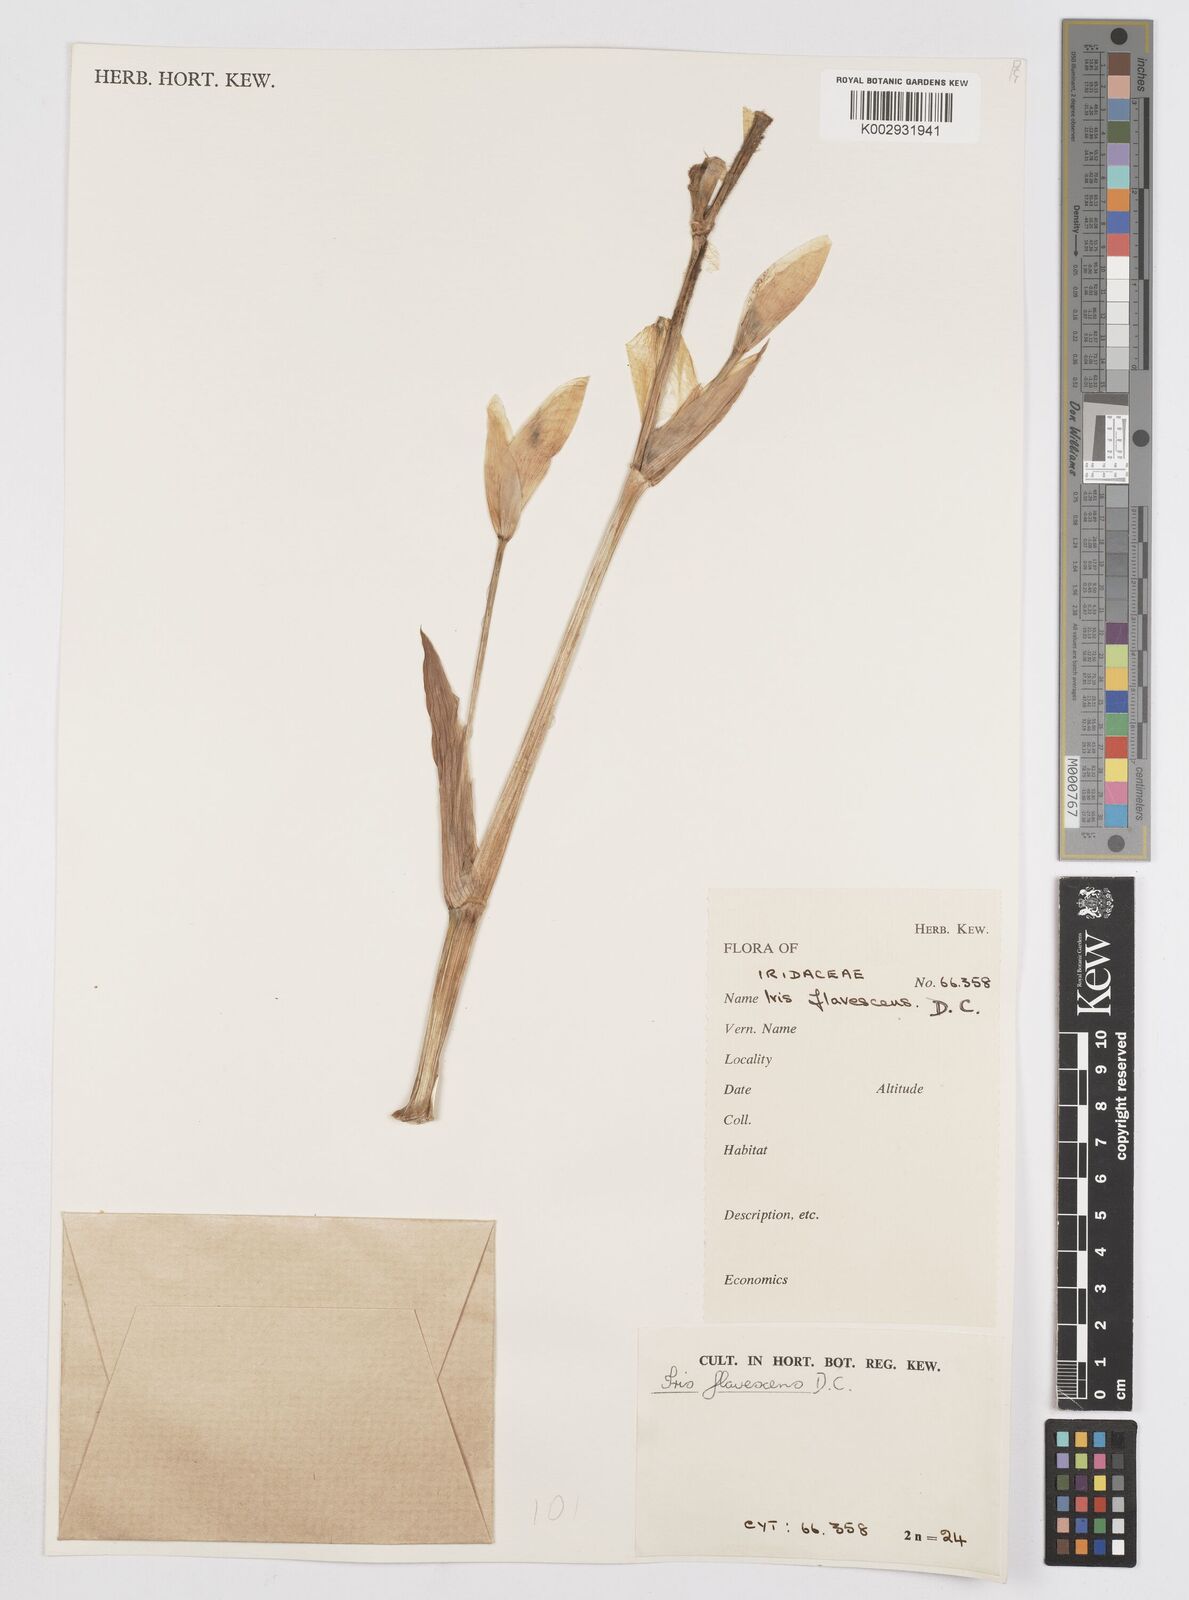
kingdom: Plantae
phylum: Tracheophyta
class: Liliopsida
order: Asparagales
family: Iridaceae
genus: Iris
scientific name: Iris variegata
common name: Hungarian iris
